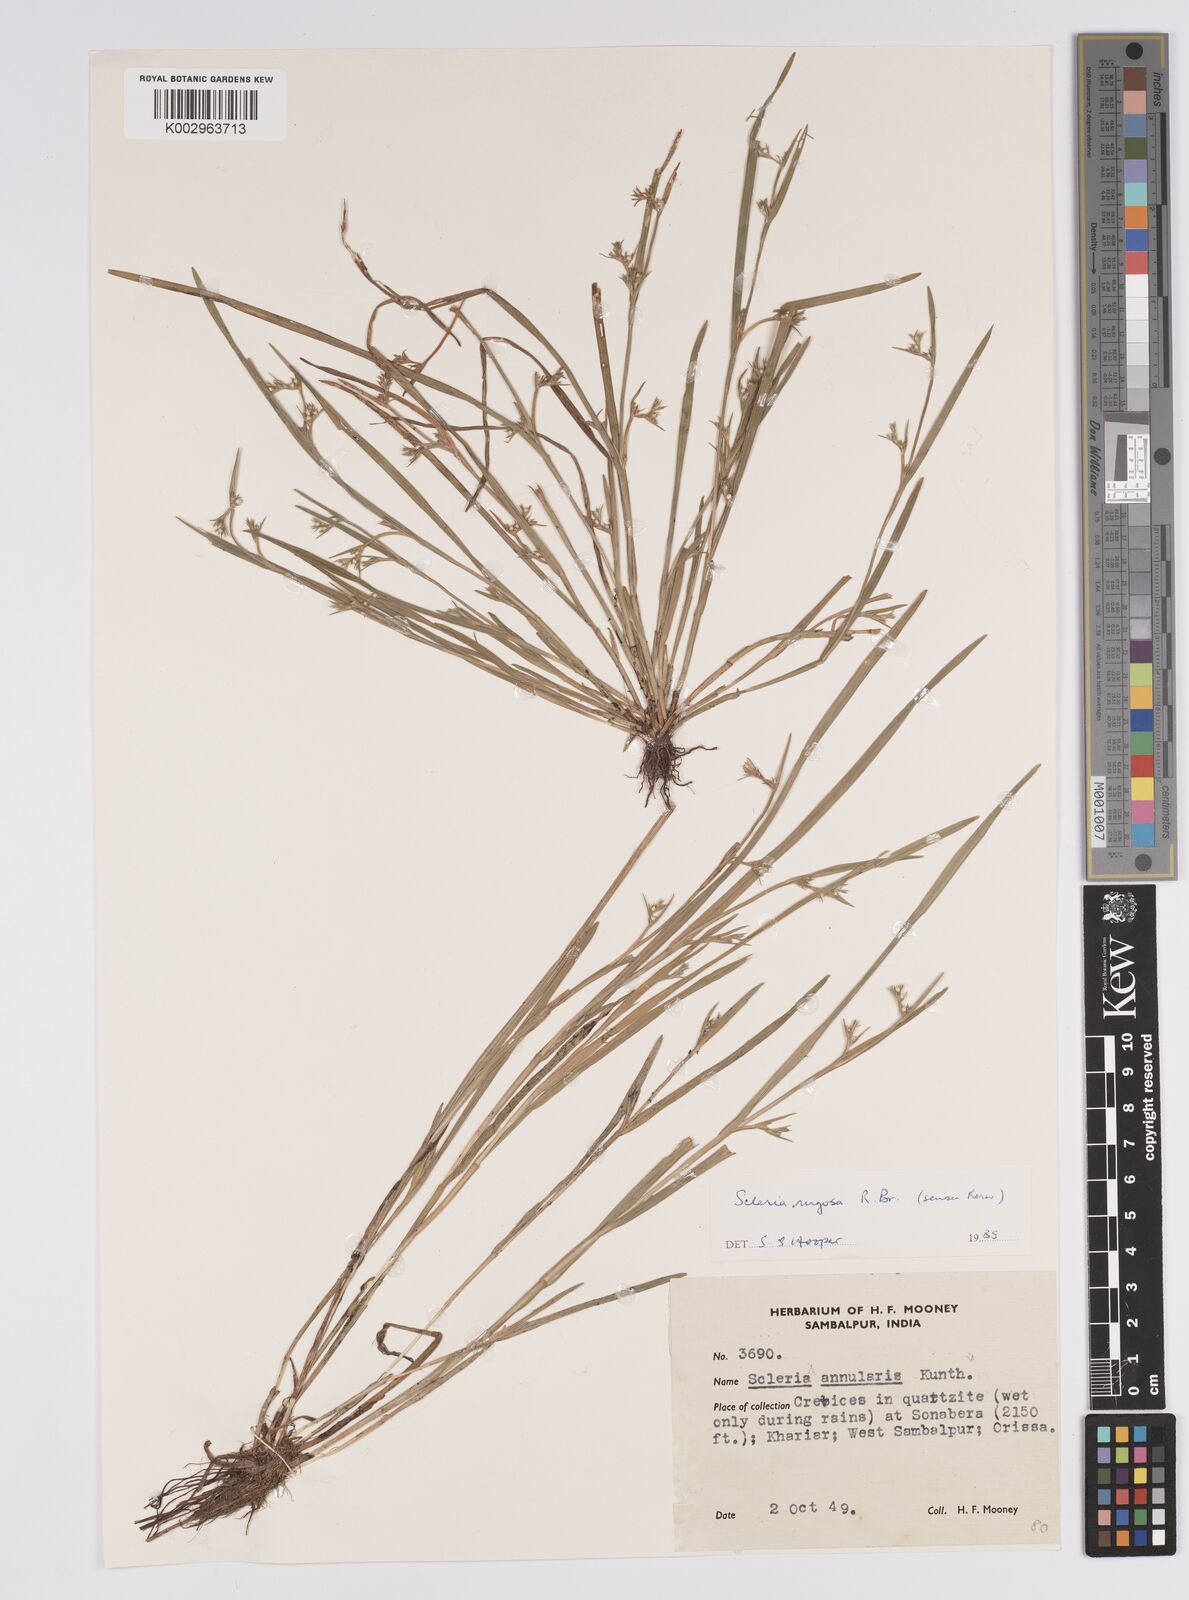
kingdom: Plantae
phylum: Tracheophyta
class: Liliopsida
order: Poales
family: Cyperaceae
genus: Scleria
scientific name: Scleria rugosa
